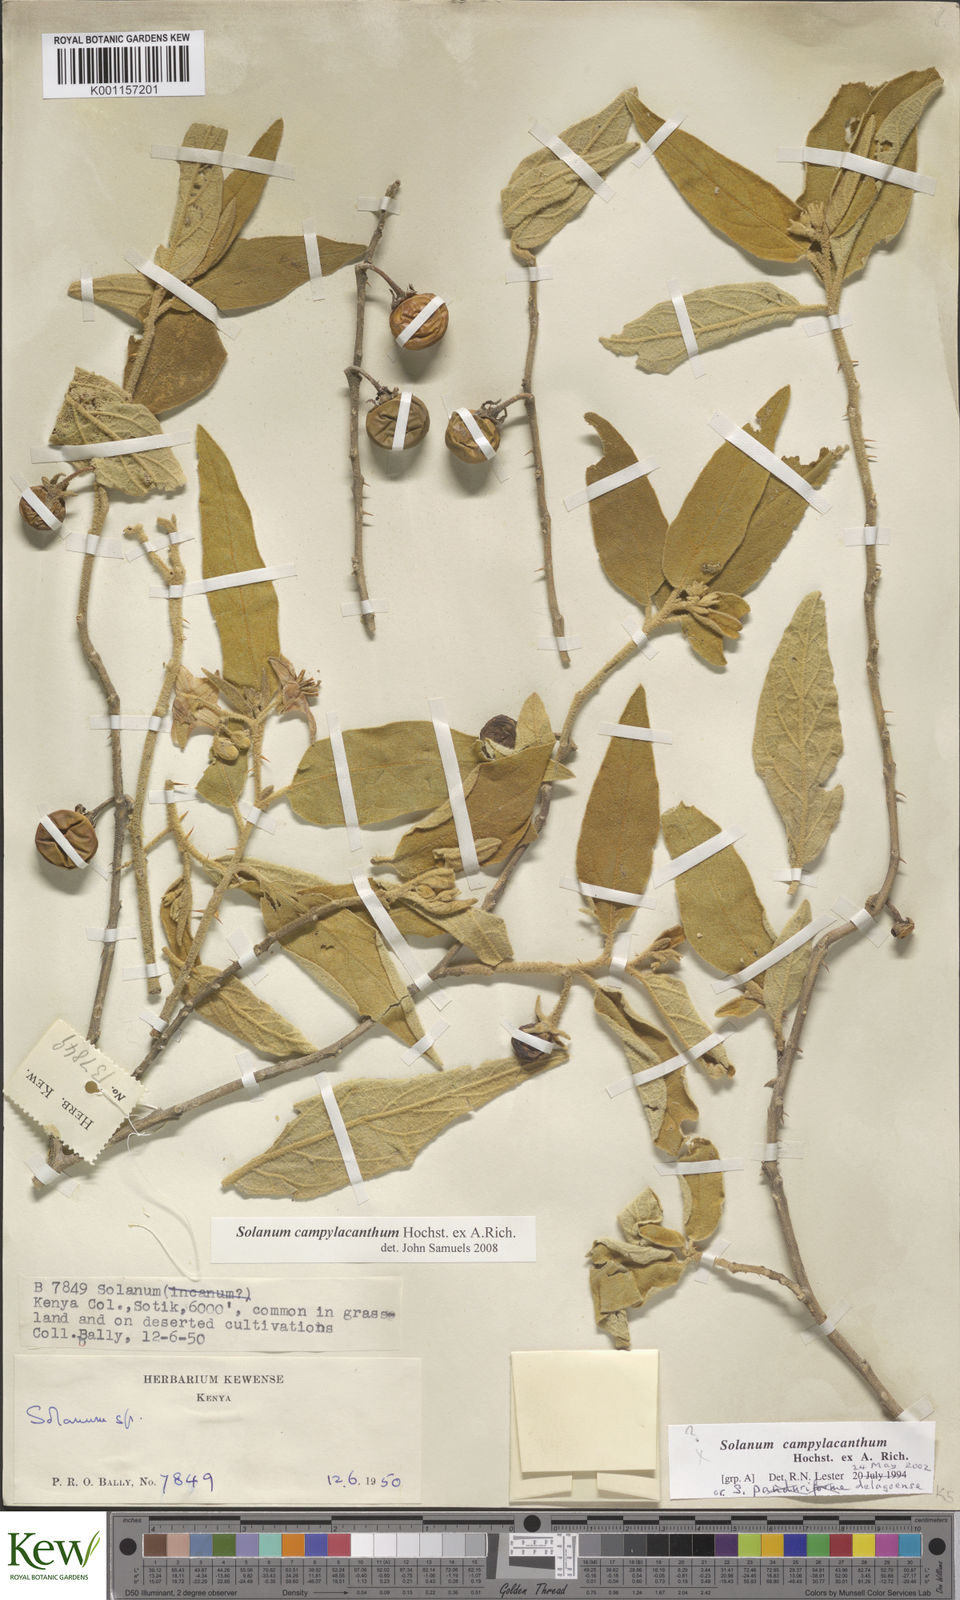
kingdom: Plantae
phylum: Tracheophyta
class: Magnoliopsida
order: Solanales
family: Solanaceae
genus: Solanum
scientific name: Solanum campylacanthum
